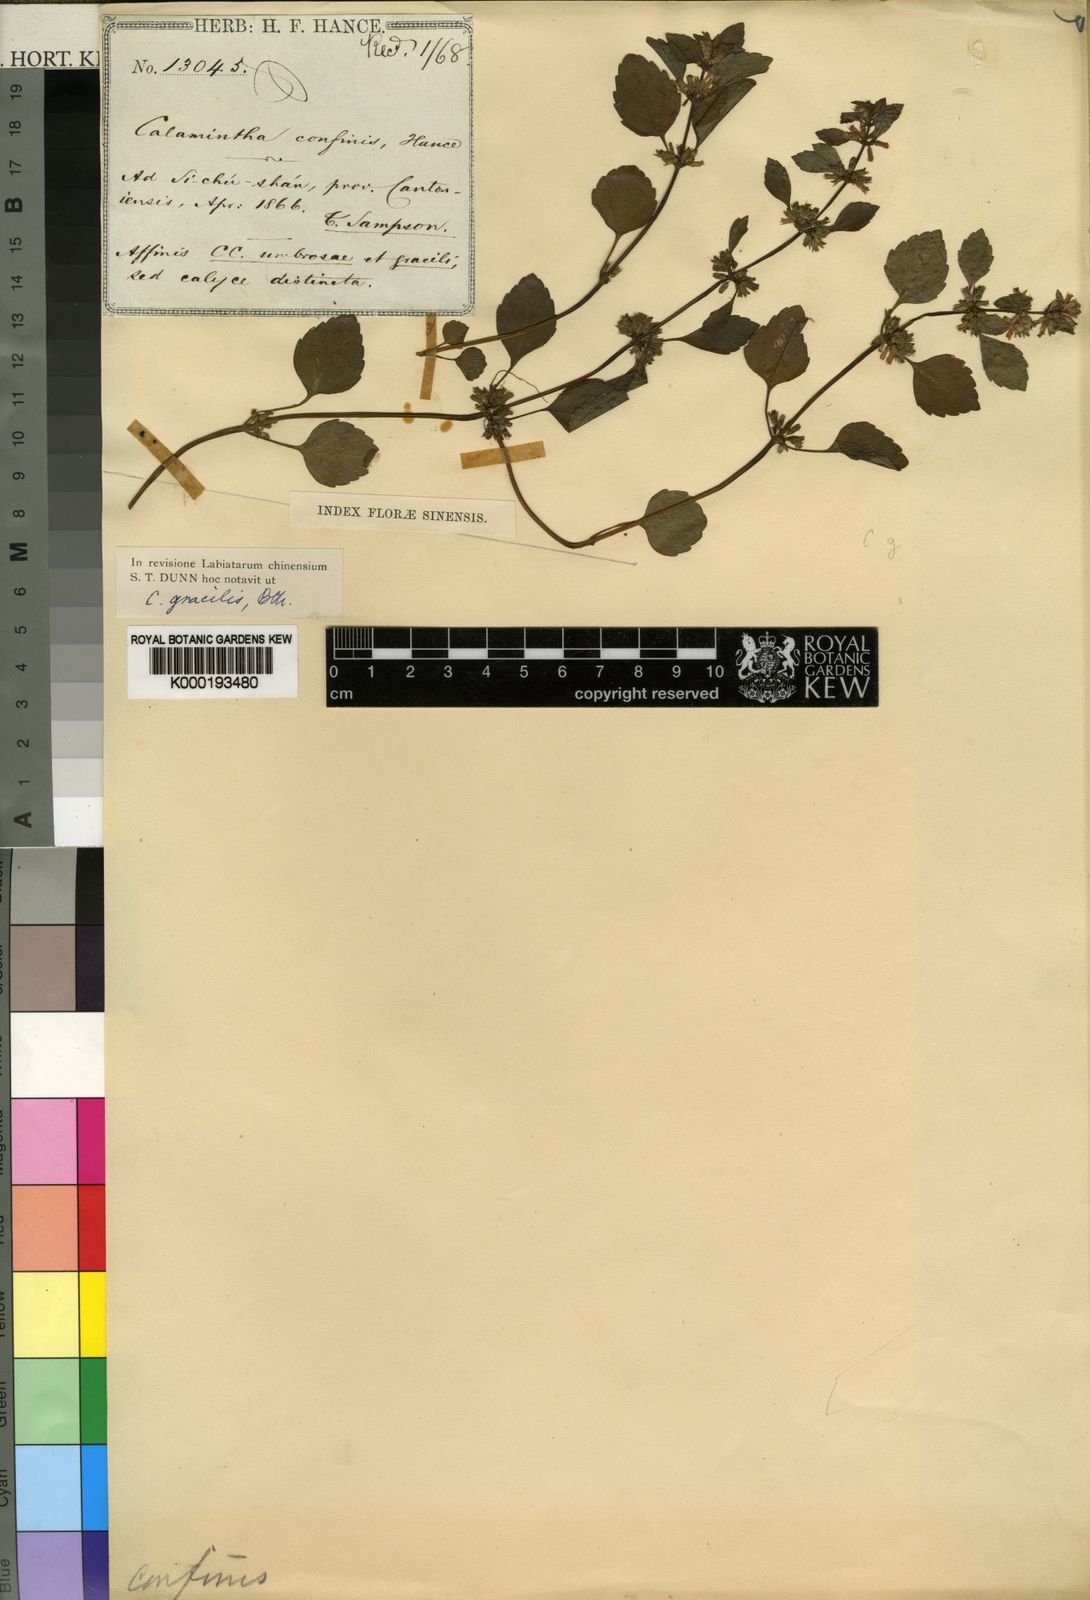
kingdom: Plantae
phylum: Tracheophyta
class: Magnoliopsida
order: Lamiales
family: Lamiaceae
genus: Clinopodium
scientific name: Clinopodium gracile
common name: Slender wild basil
